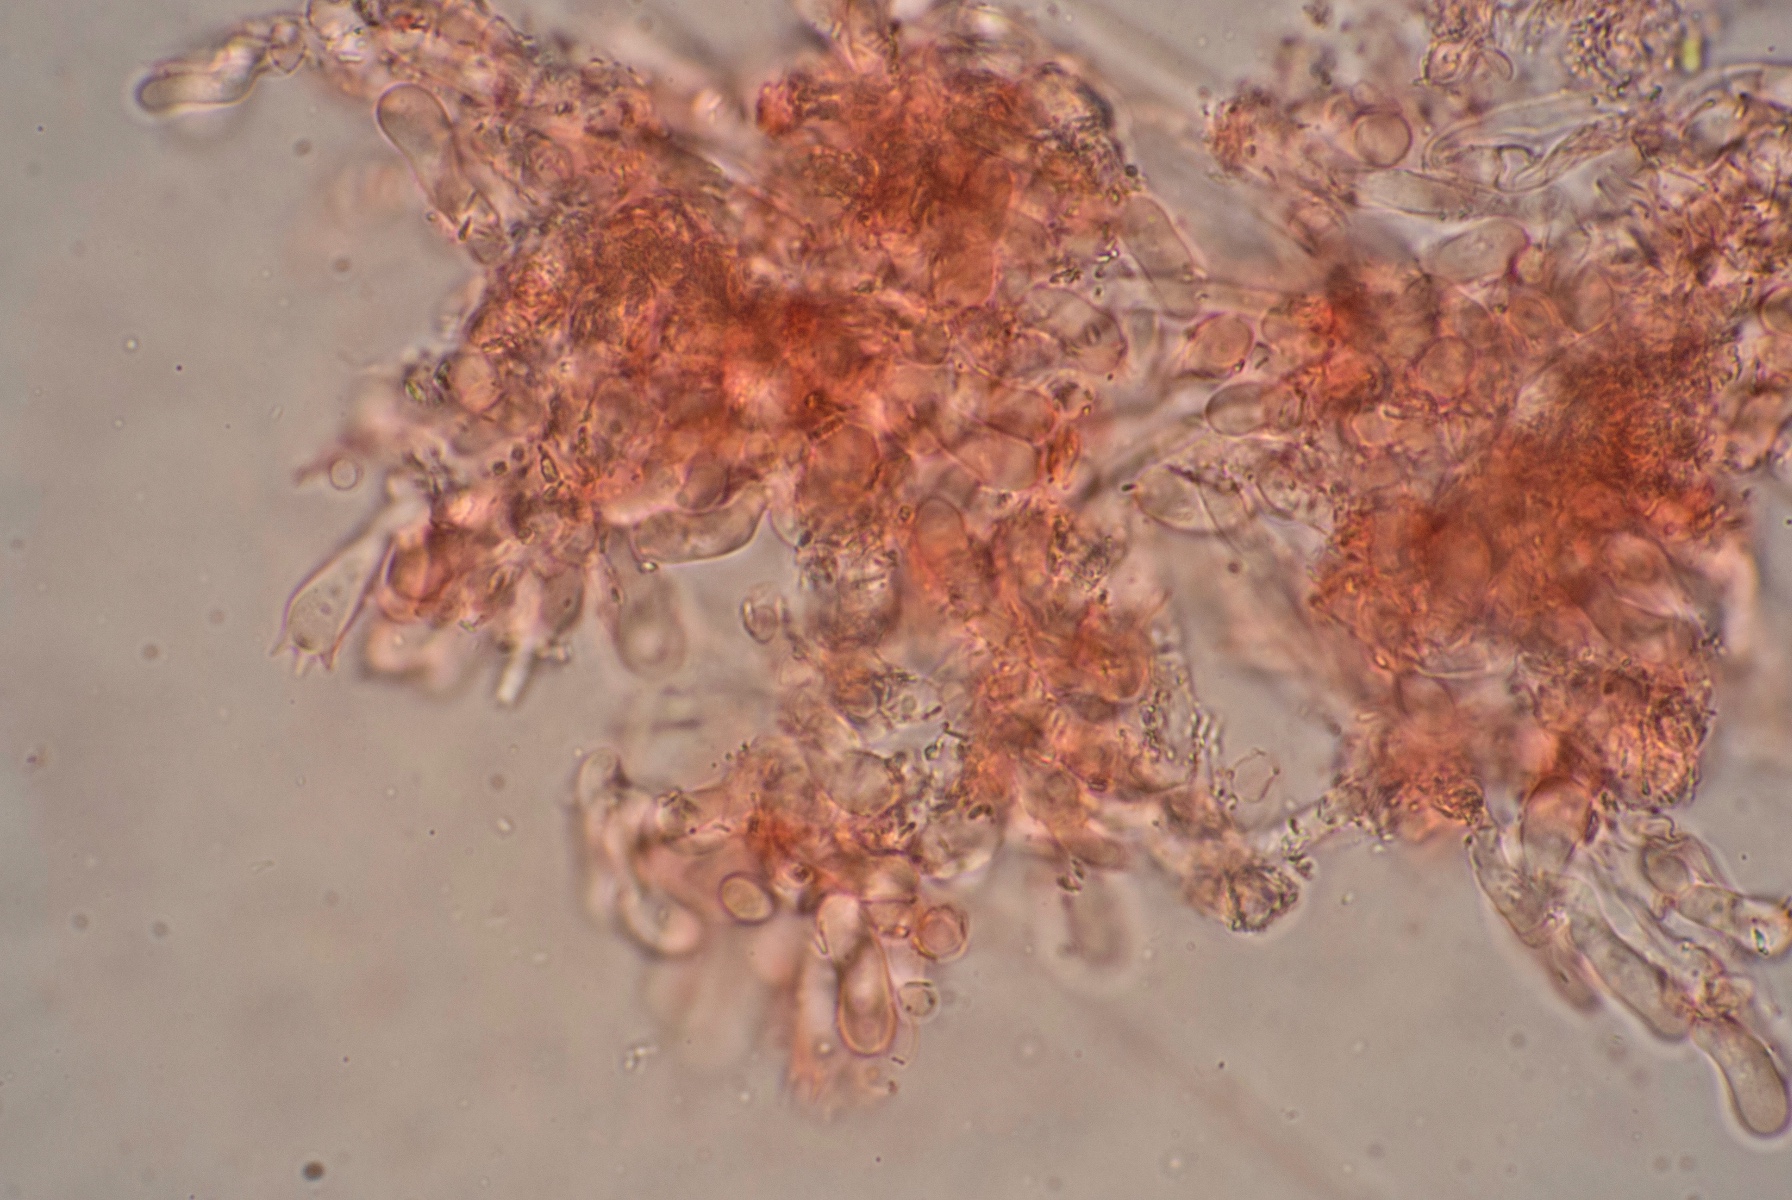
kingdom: Fungi
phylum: Basidiomycota
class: Agaricomycetes
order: Atheliales
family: Atheliaceae
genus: Athelia
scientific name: Athelia epiphylla
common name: almindelig barkhinde
